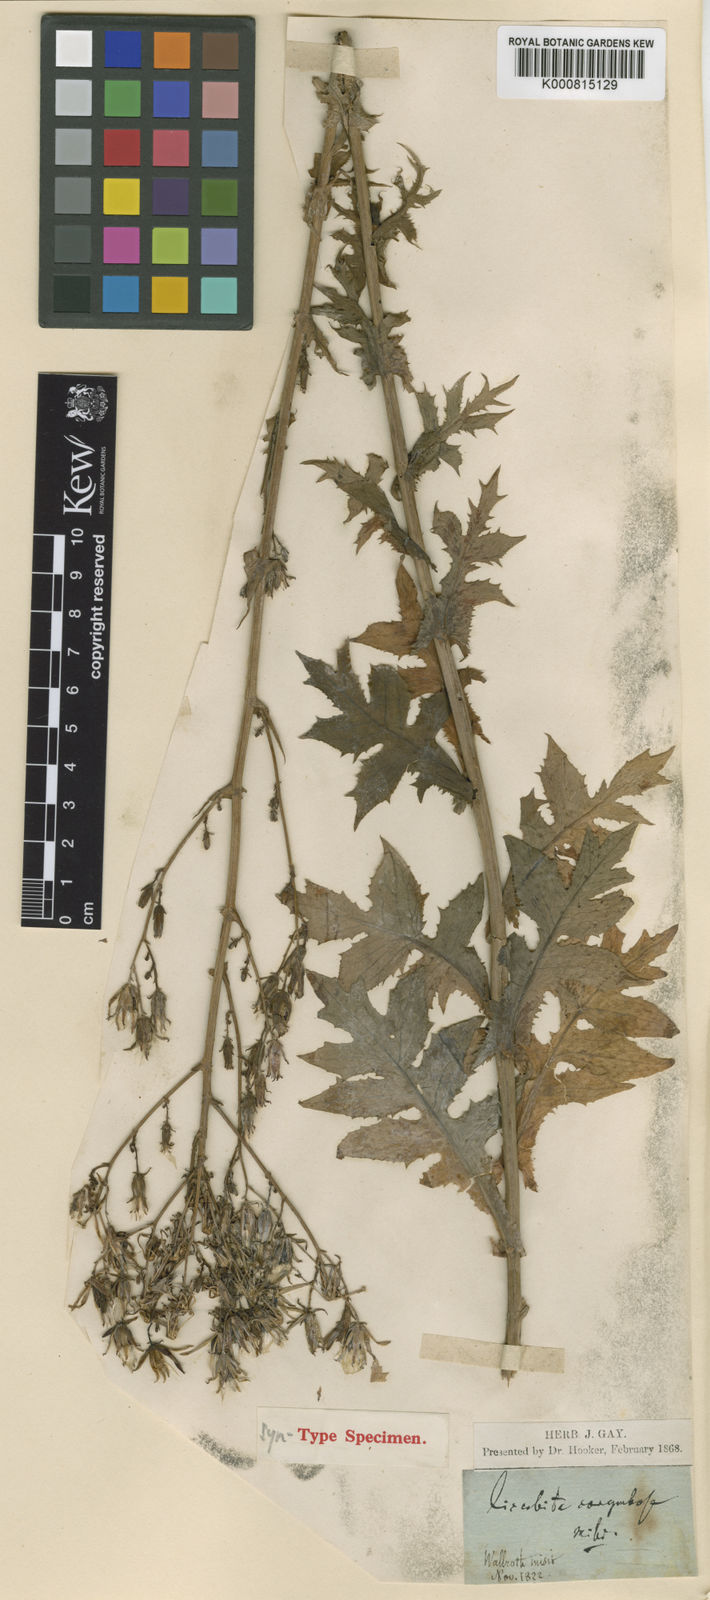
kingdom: Plantae
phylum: Tracheophyta
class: Magnoliopsida
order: Asterales
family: Asteraceae
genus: Lactuca
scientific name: Lactuca quercina
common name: Wild lettuce
